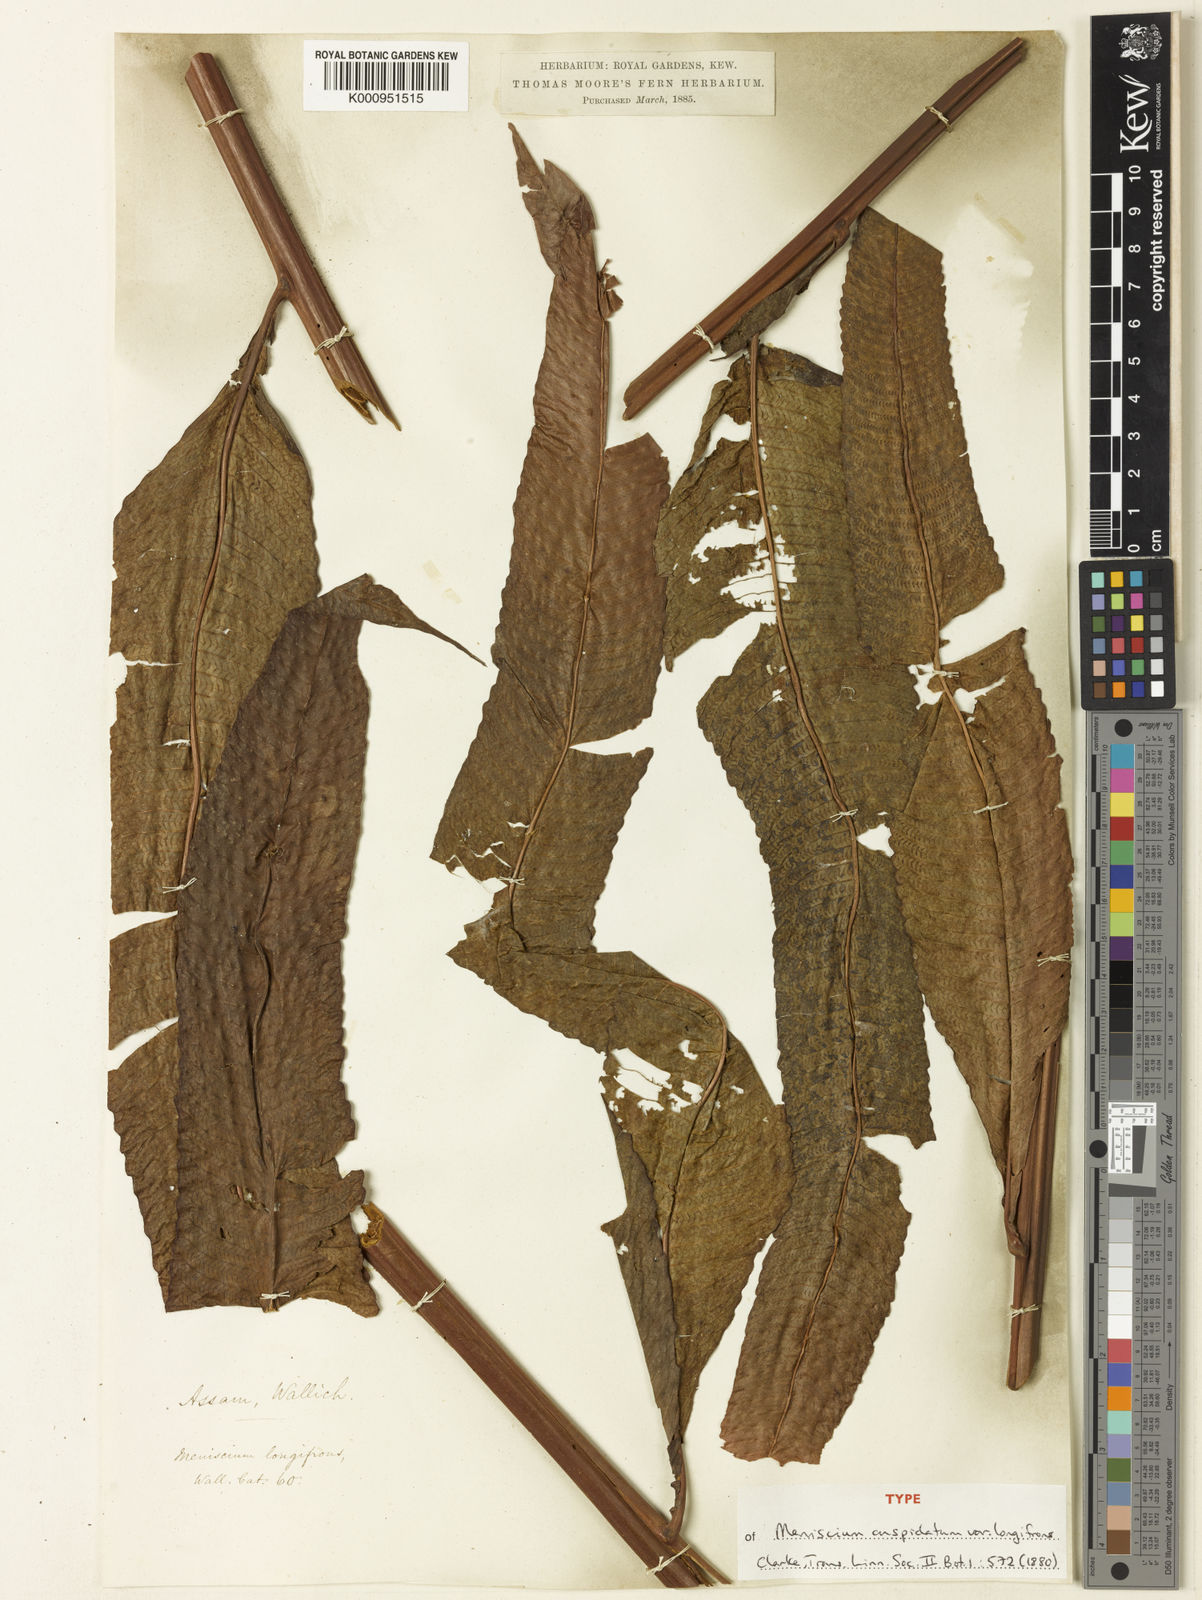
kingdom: Plantae
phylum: Tracheophyta
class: Polypodiopsida
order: Polypodiales
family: Thelypteridaceae
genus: Menisciopsis
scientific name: Menisciopsis lakhimpurensis
